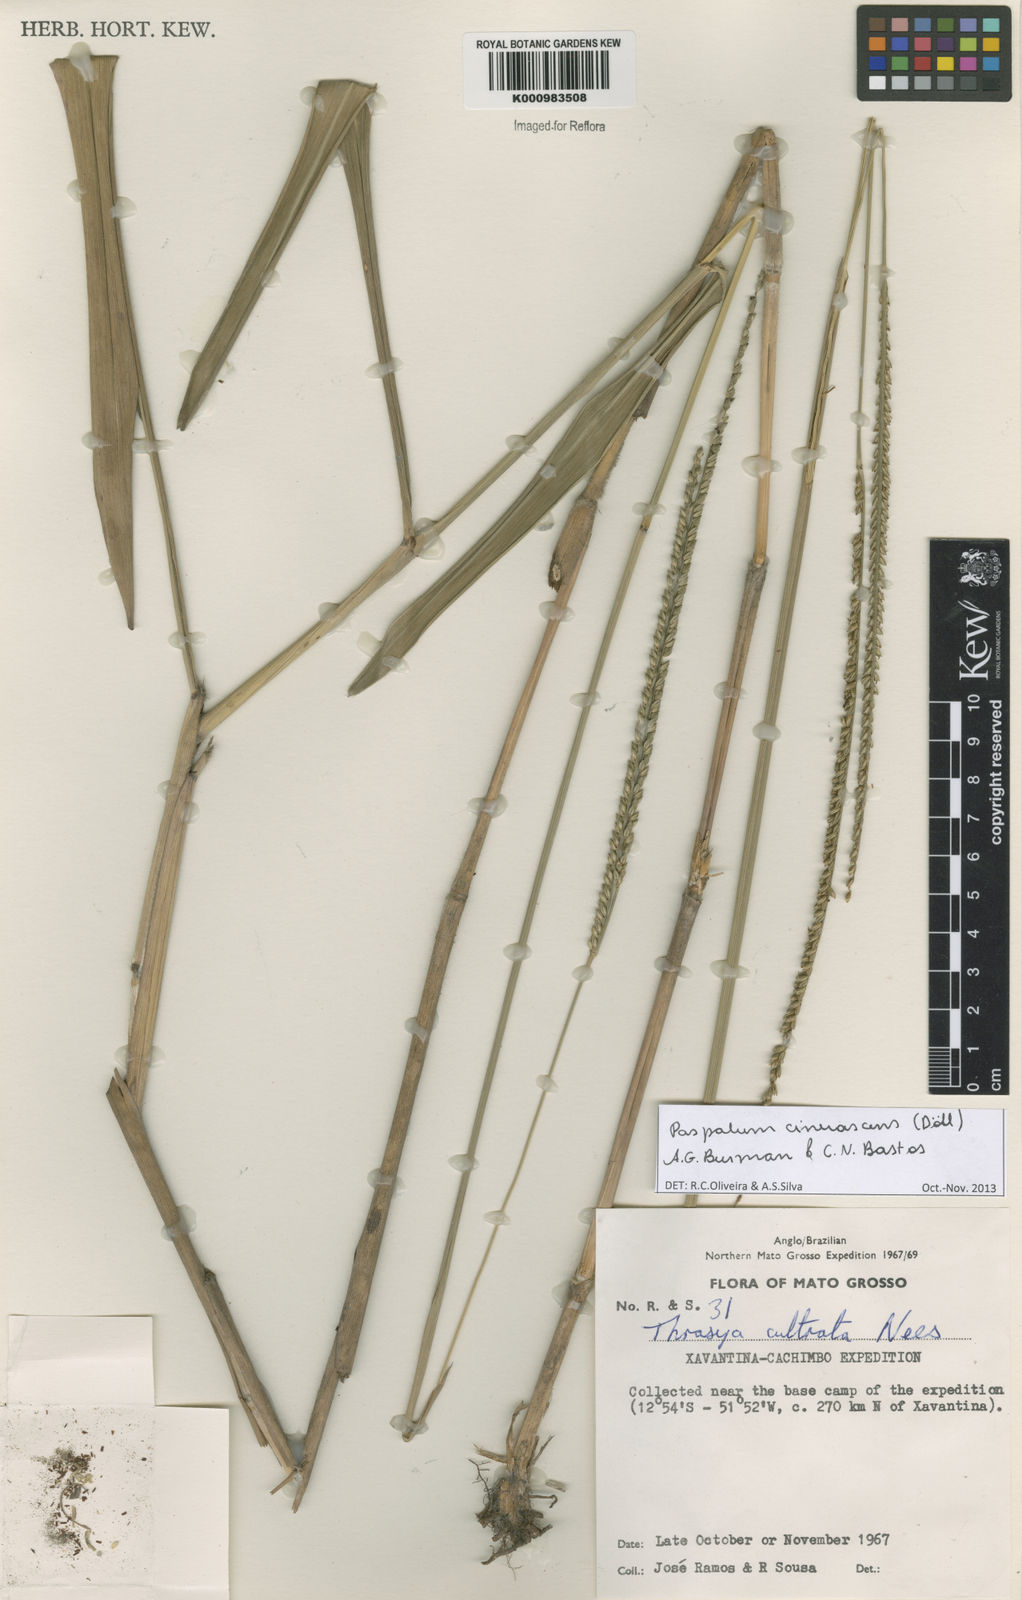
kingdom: Plantae
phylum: Tracheophyta
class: Liliopsida
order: Poales
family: Poaceae
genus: Paspalum
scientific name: Paspalum
